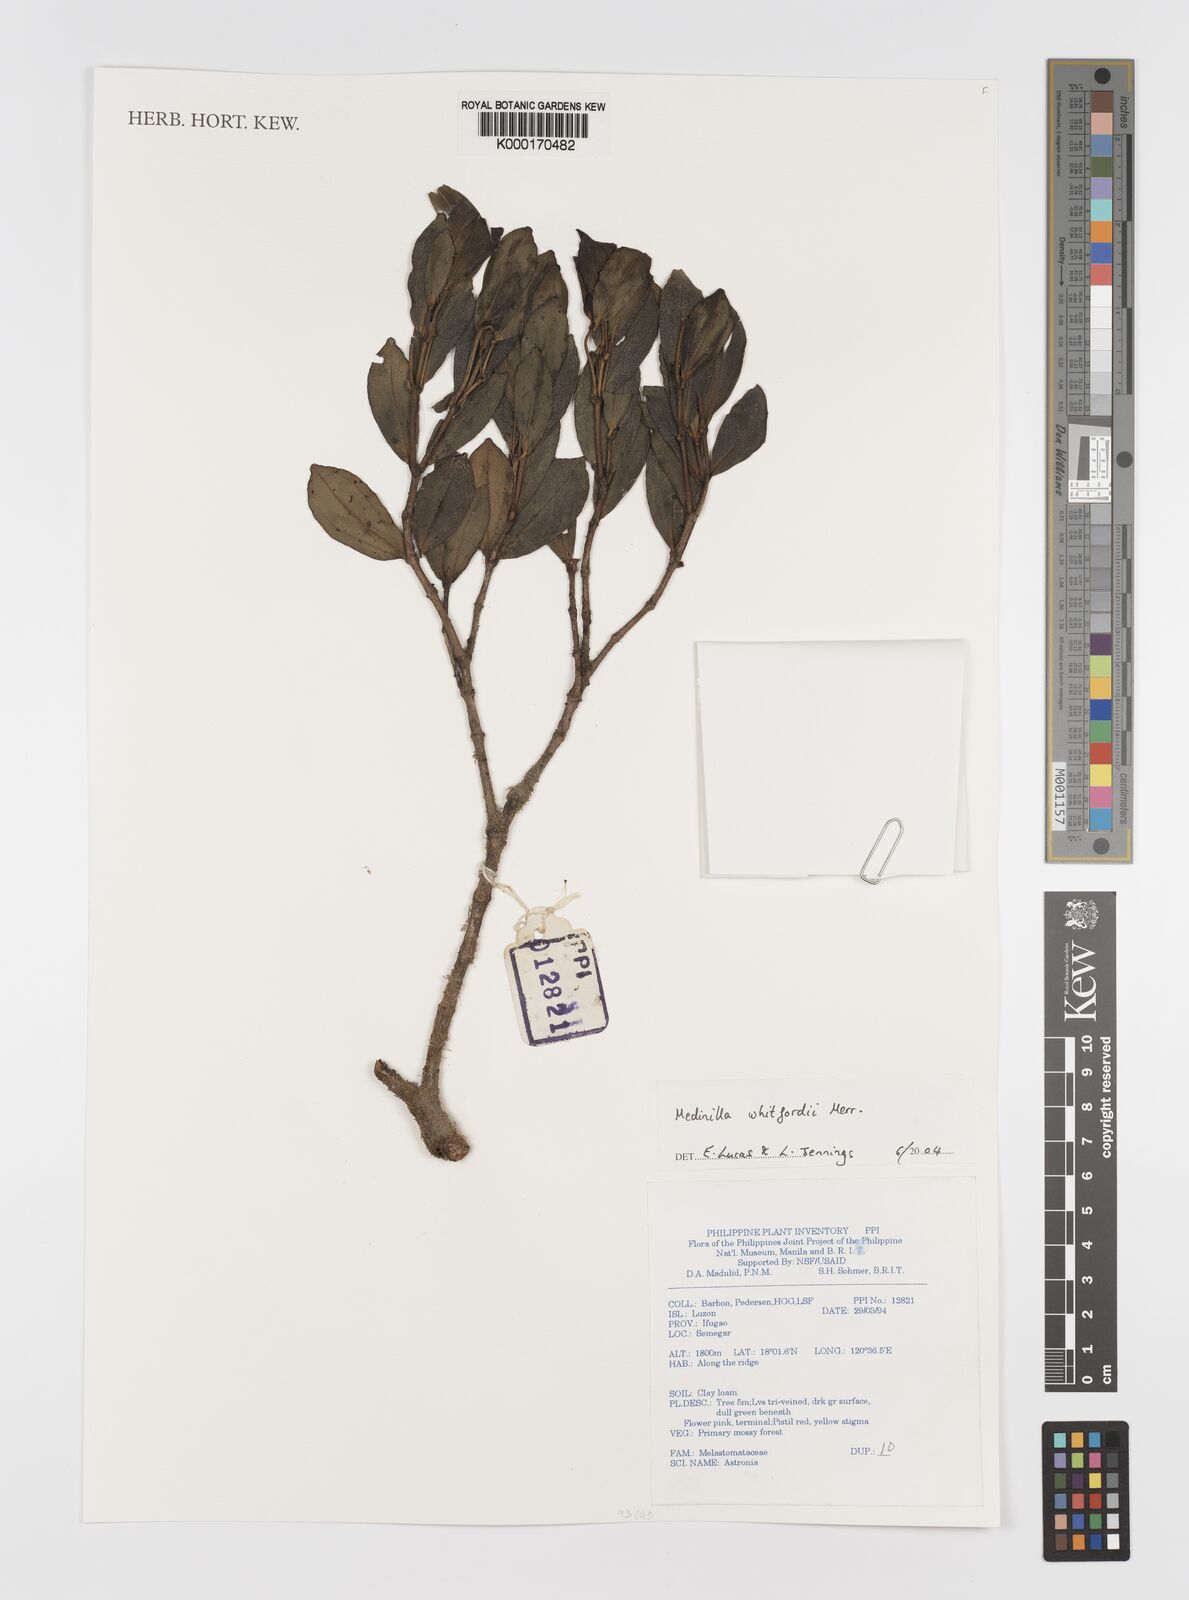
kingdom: Plantae
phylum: Tracheophyta
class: Magnoliopsida
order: Myrtales
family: Melastomataceae
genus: Medinilla
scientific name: Medinilla whitfordii
